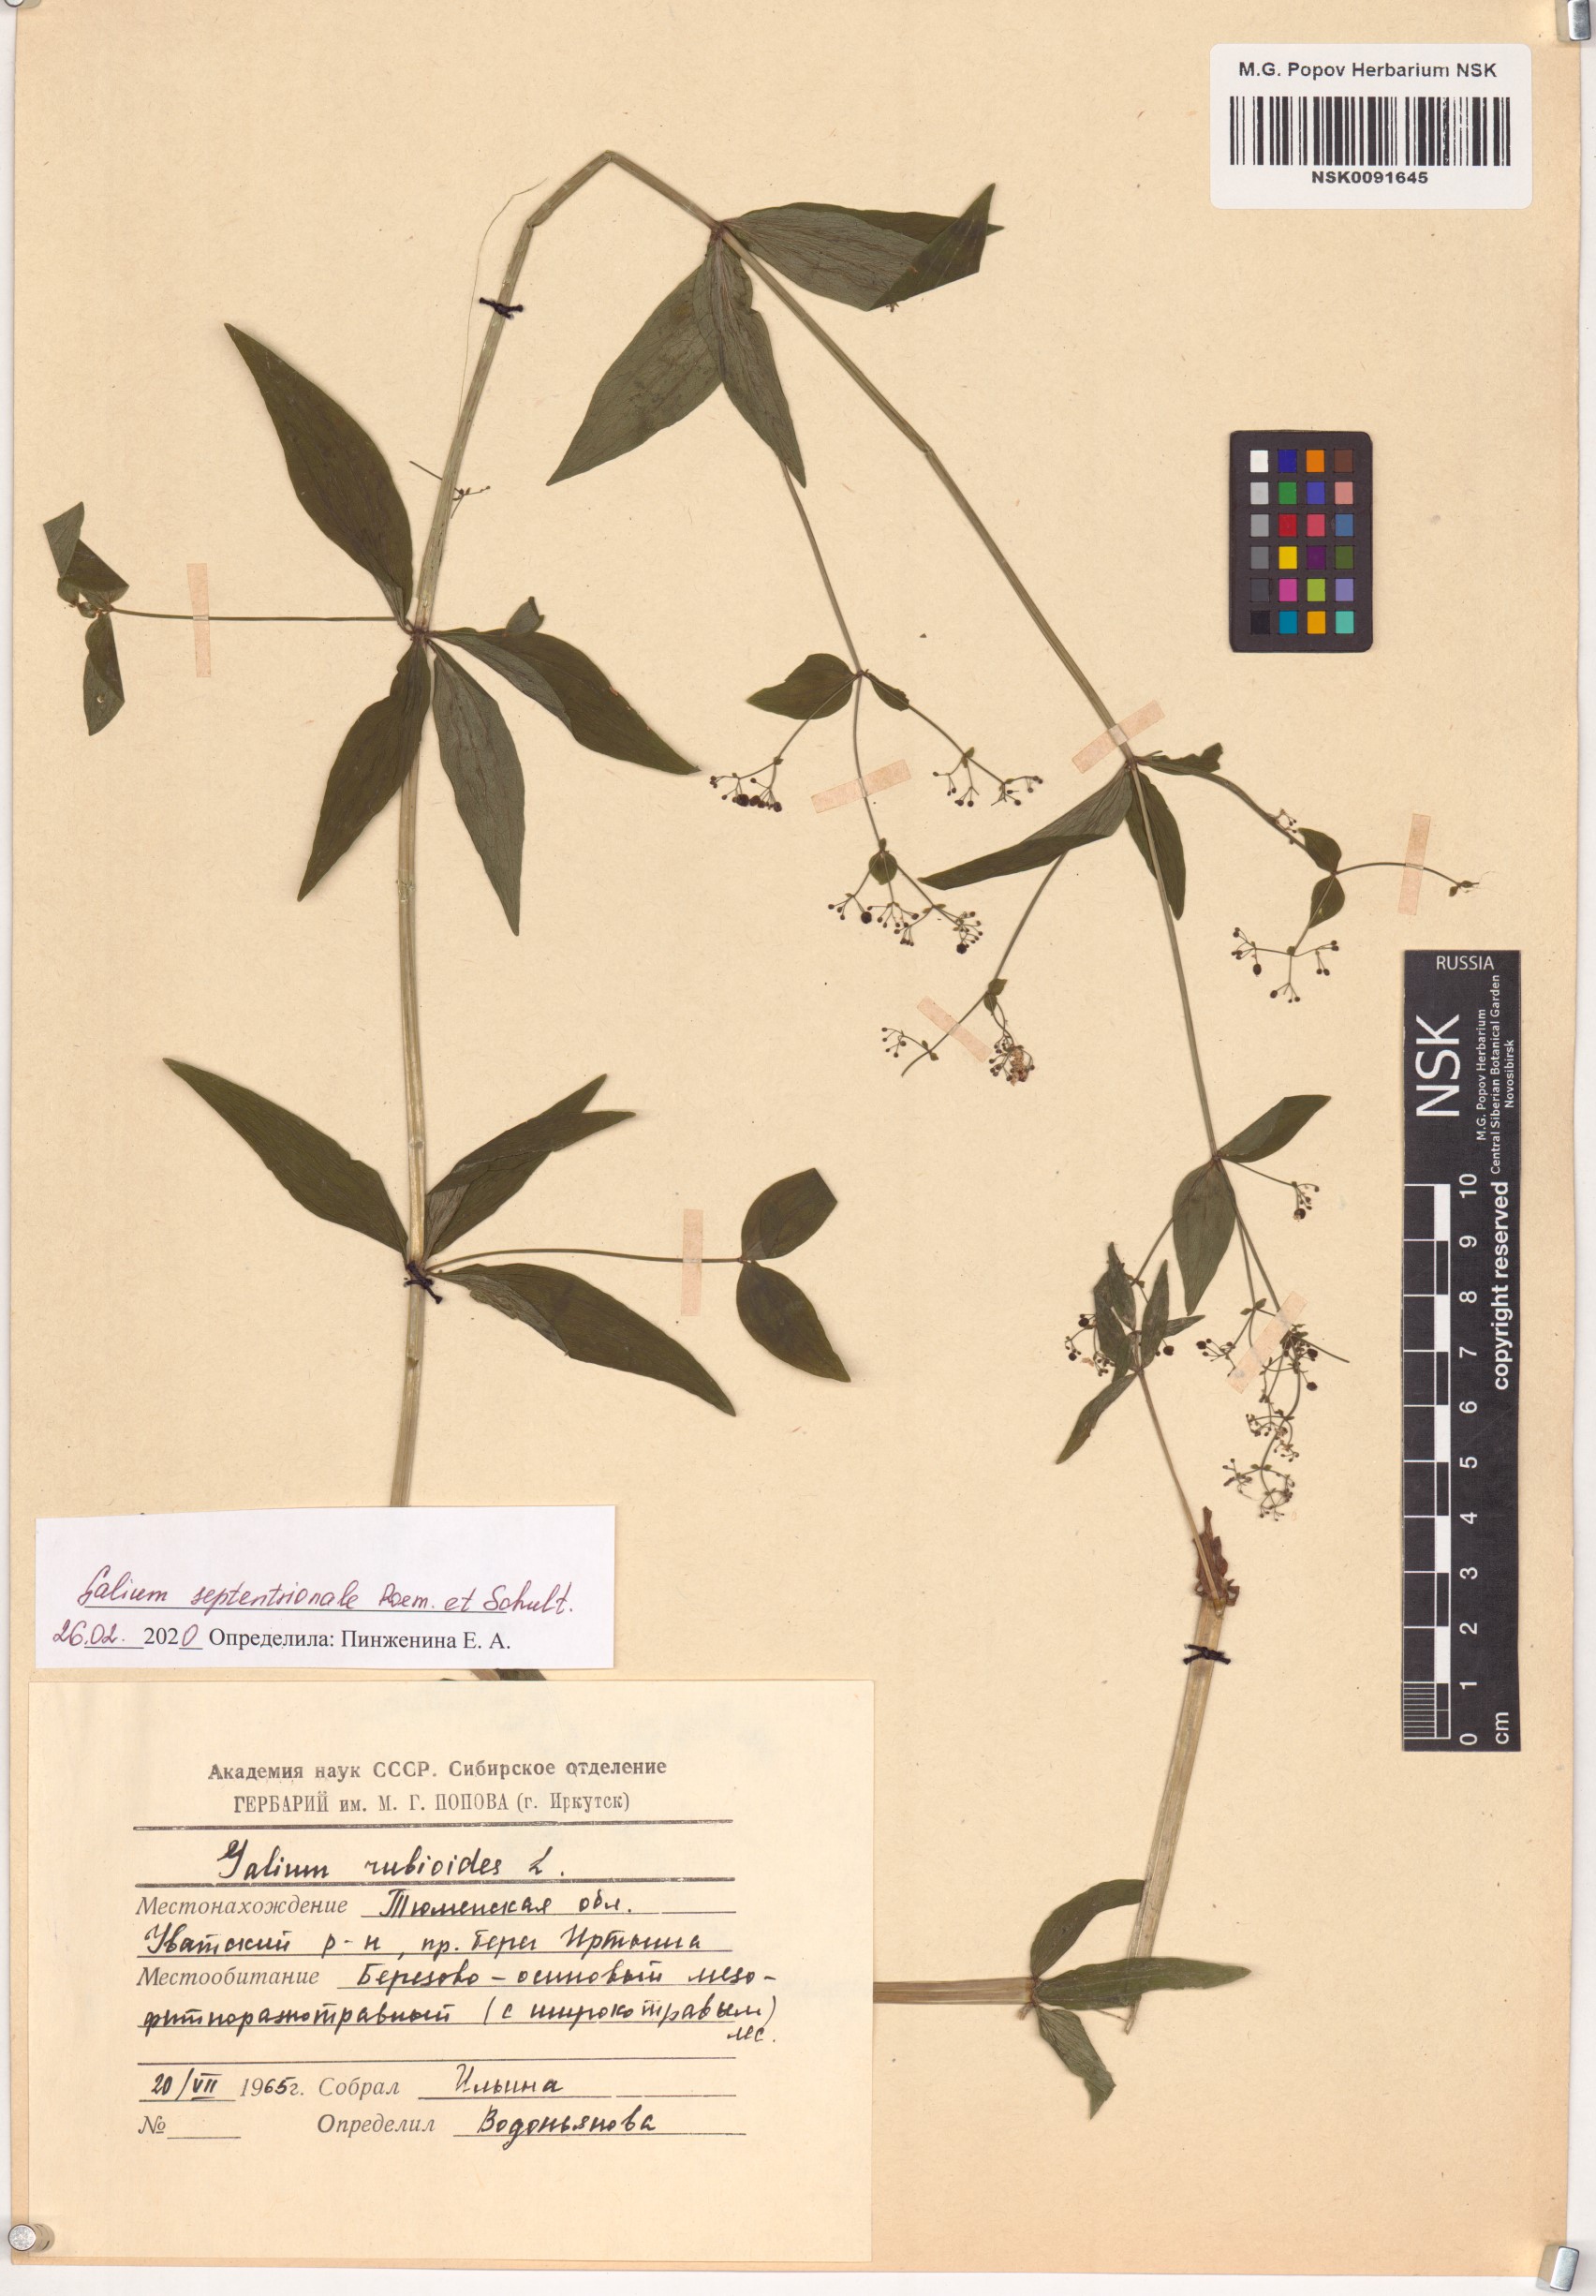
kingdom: Plantae
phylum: Tracheophyta
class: Magnoliopsida
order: Gentianales
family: Rubiaceae
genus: Galium
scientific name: Galium boreale
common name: Northern bedstraw
